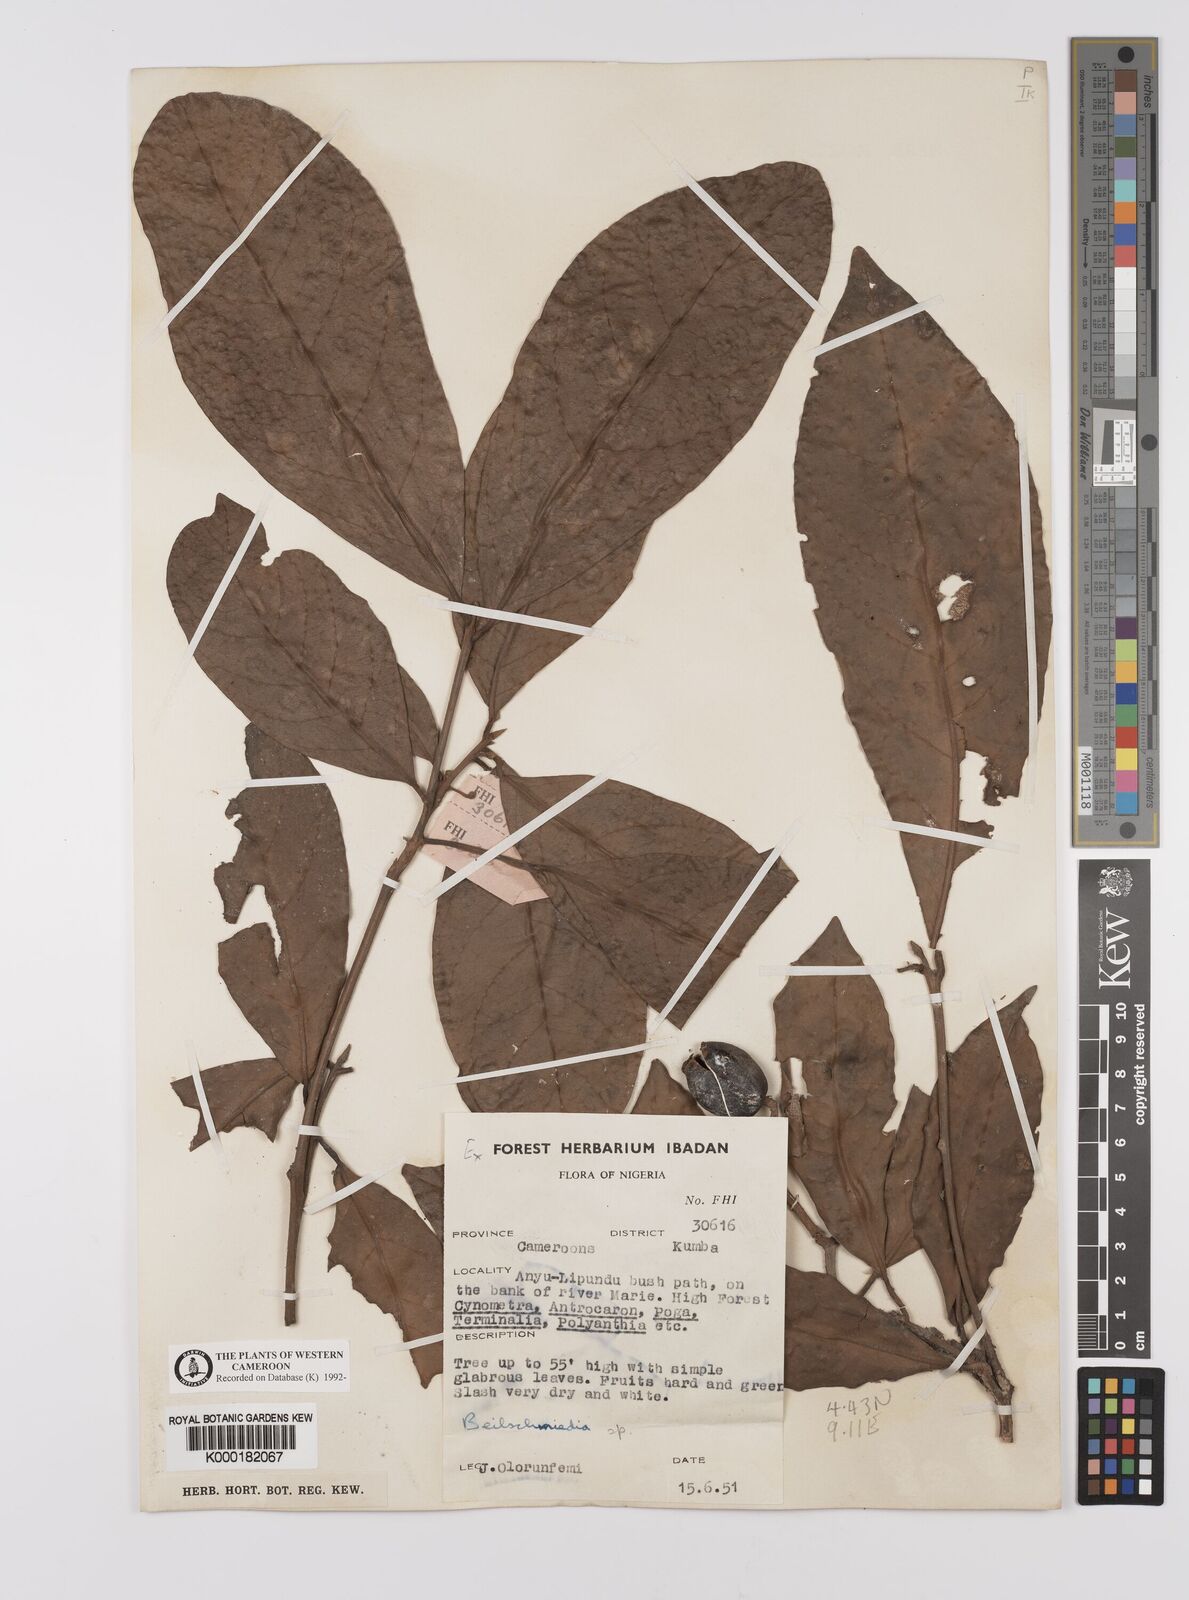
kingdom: Plantae
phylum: Tracheophyta
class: Magnoliopsida
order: Laurales
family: Lauraceae
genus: Beilschmiedia
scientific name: Beilschmiedia
